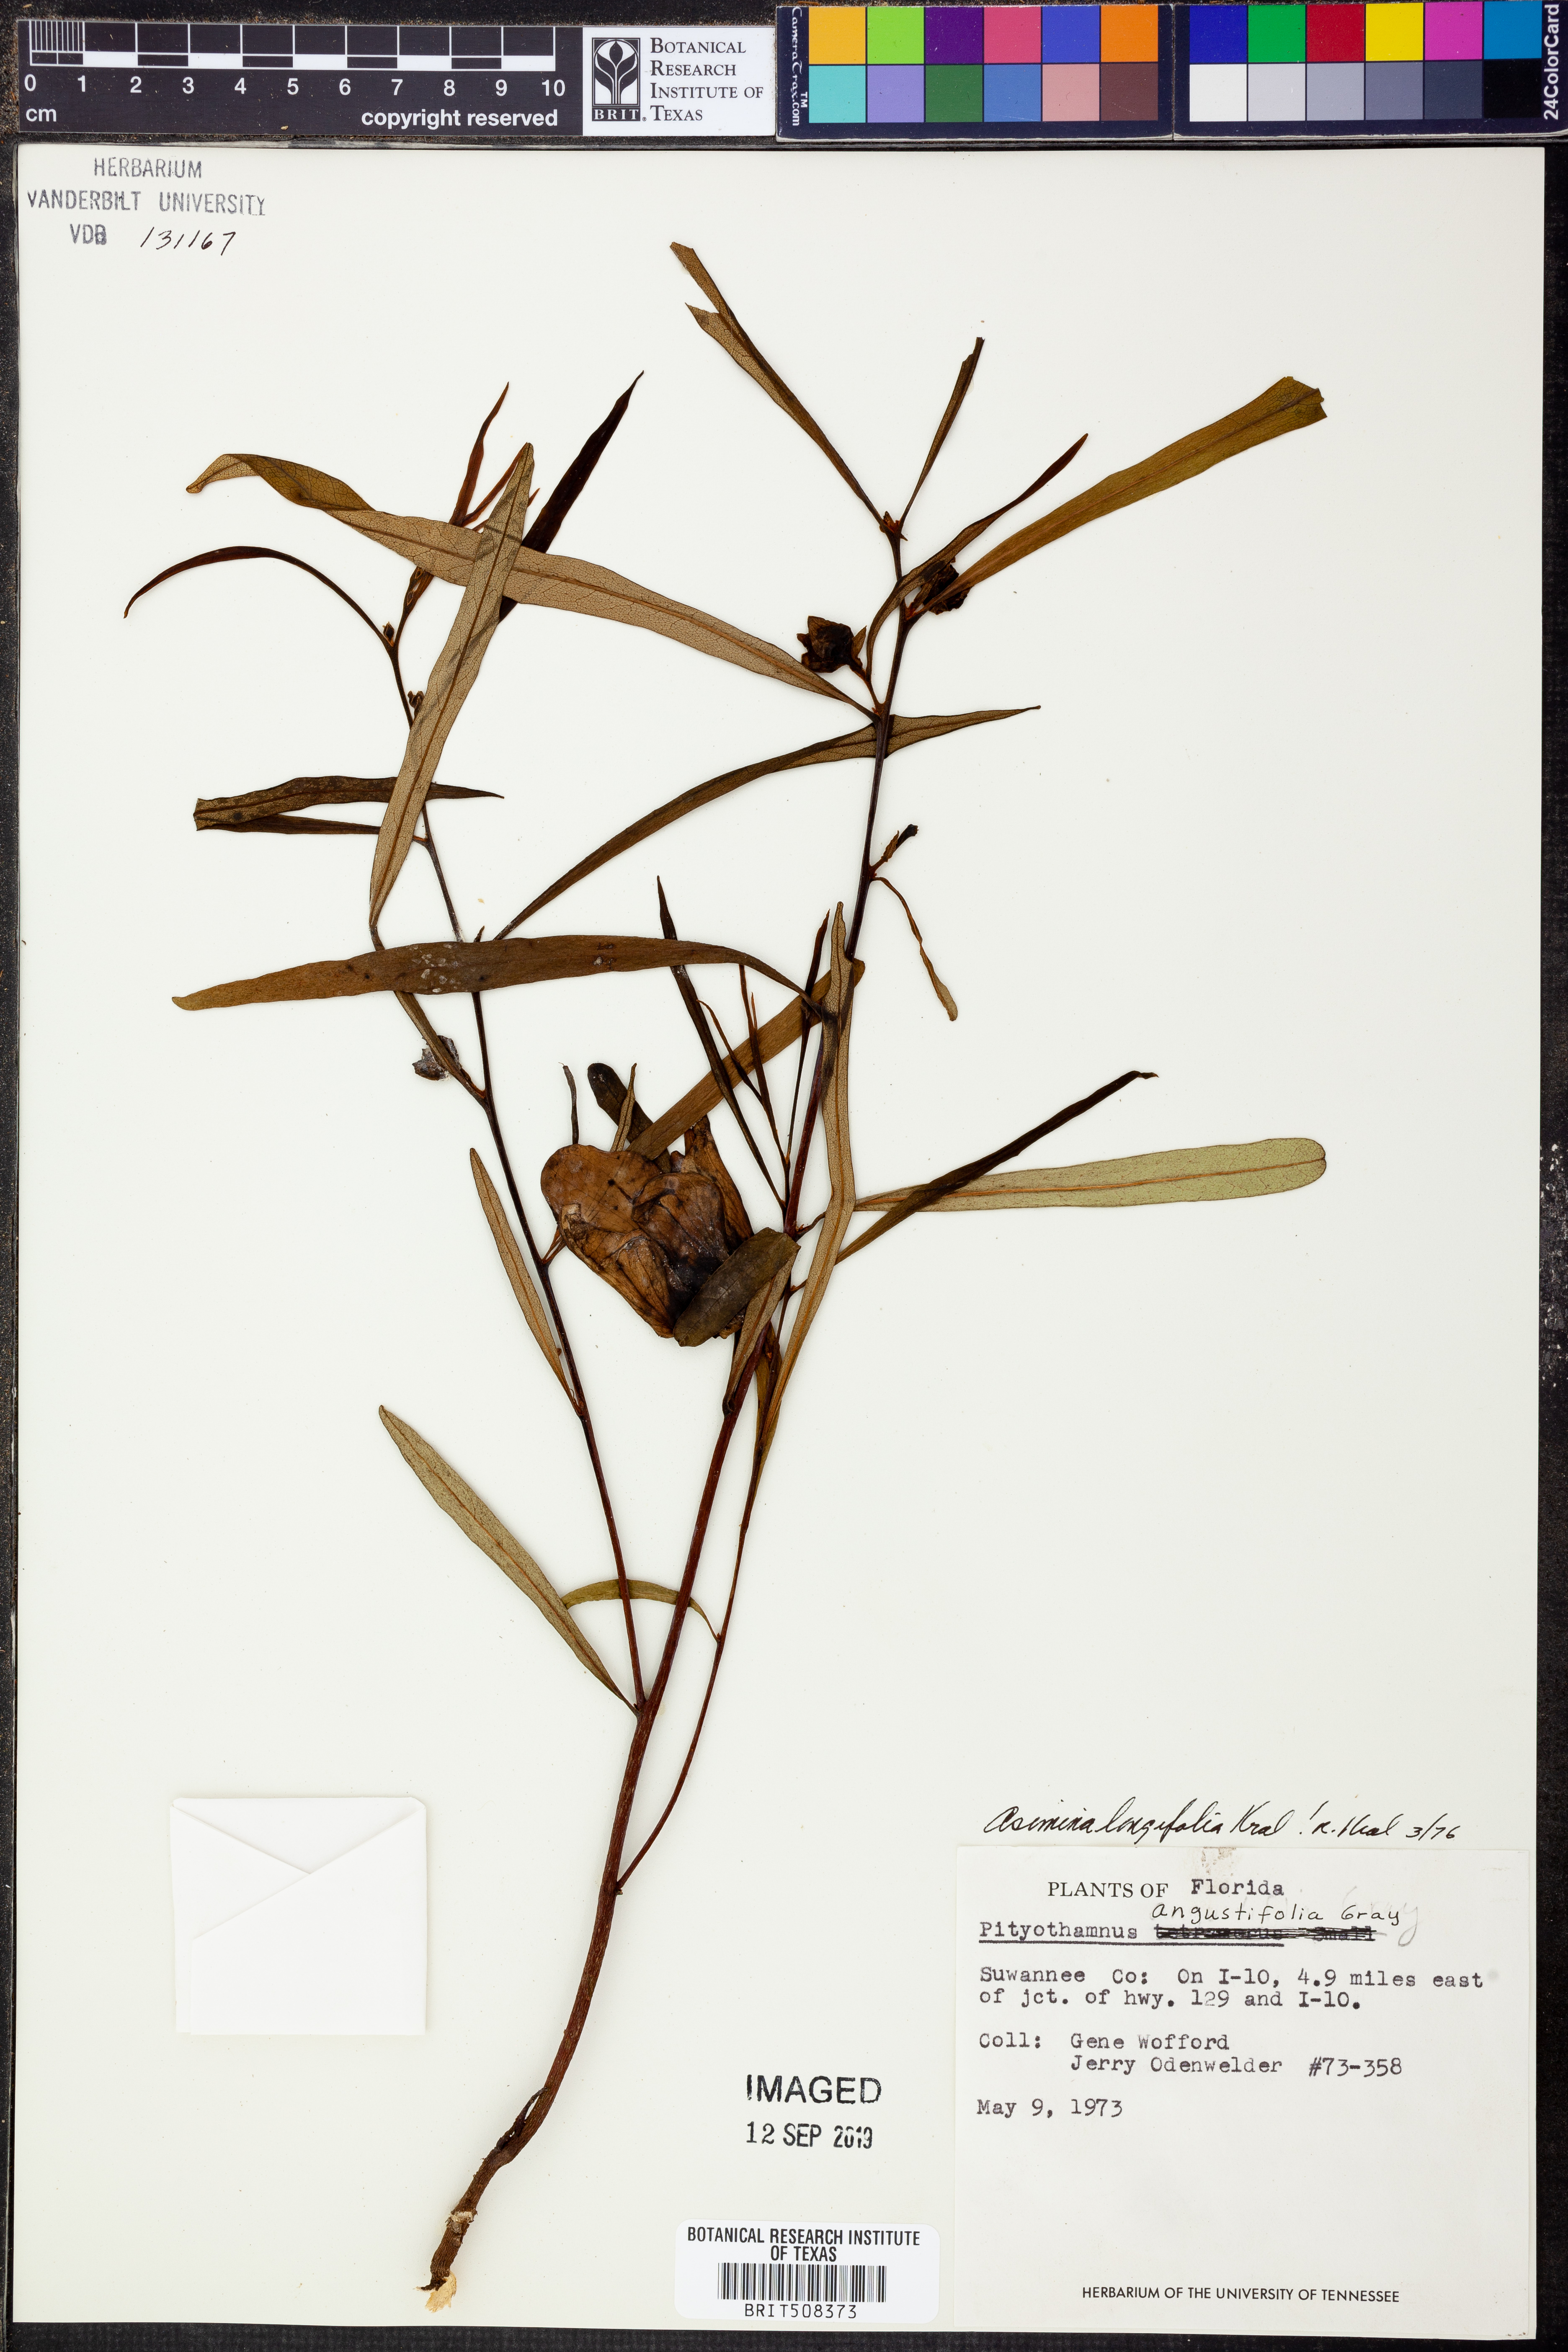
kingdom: Plantae
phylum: Tracheophyta
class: Magnoliopsida
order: Magnoliales
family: Annonaceae
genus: Asimina
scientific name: Asimina longifolia
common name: Polecatbush
